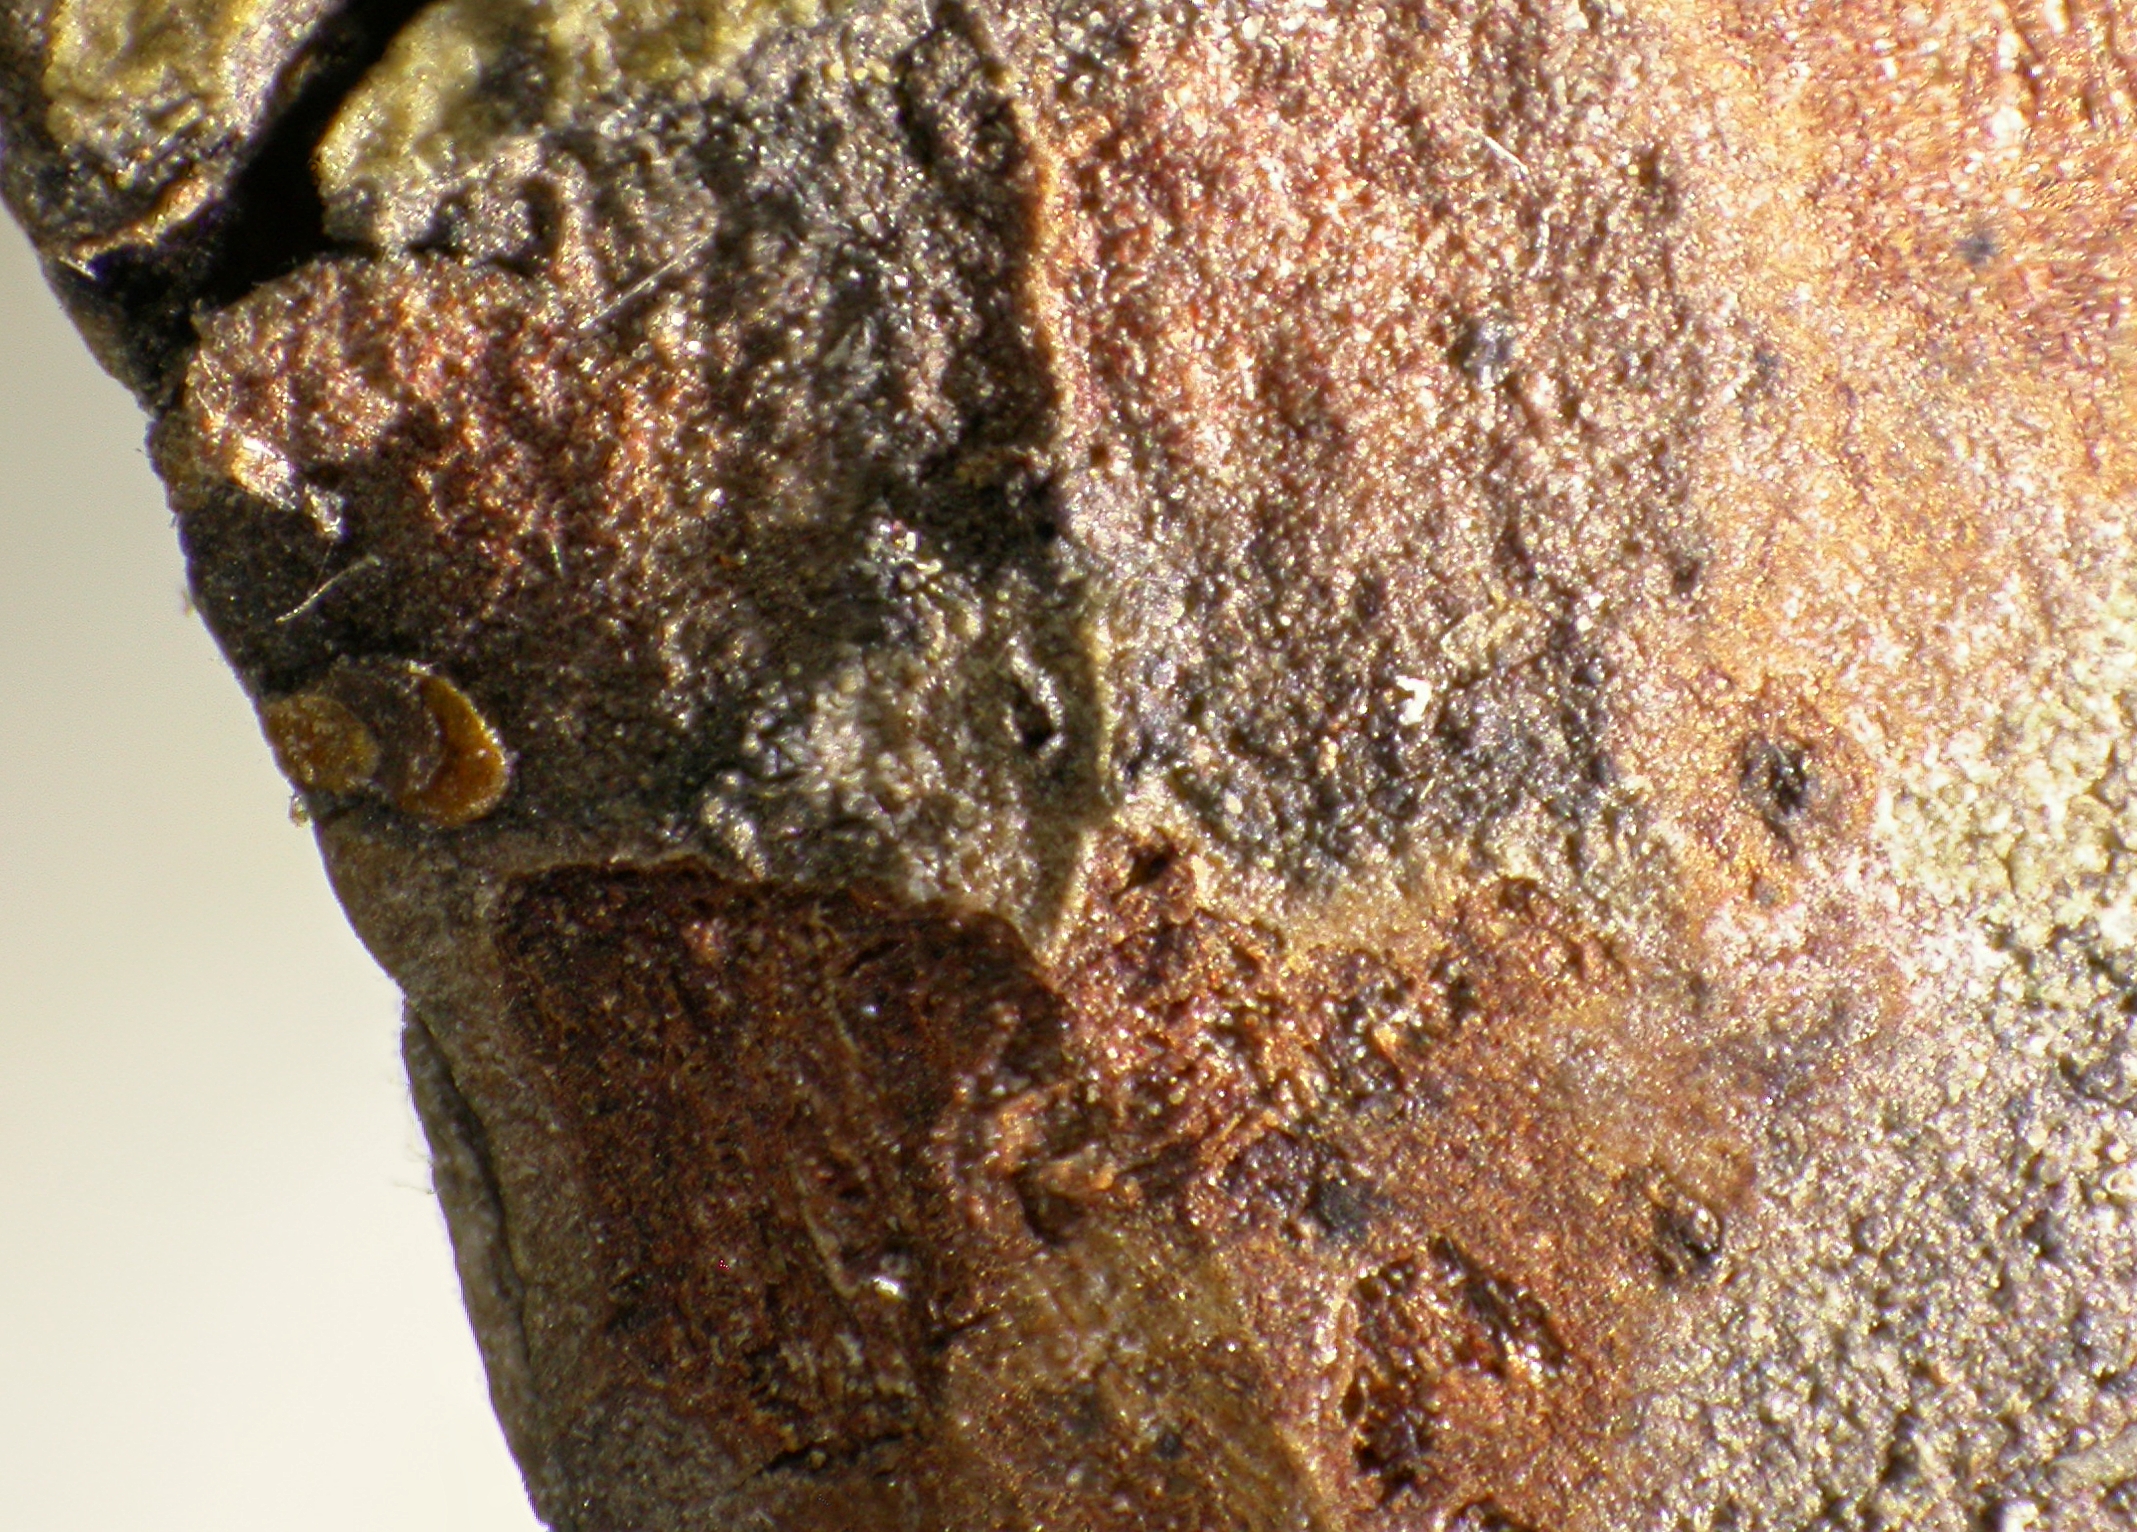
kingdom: Fungi
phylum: Ascomycota
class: Dothideomycetes
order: Dothideales
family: Saccotheciaceae
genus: Metasphaeria
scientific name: Metasphaeria lentiformis
